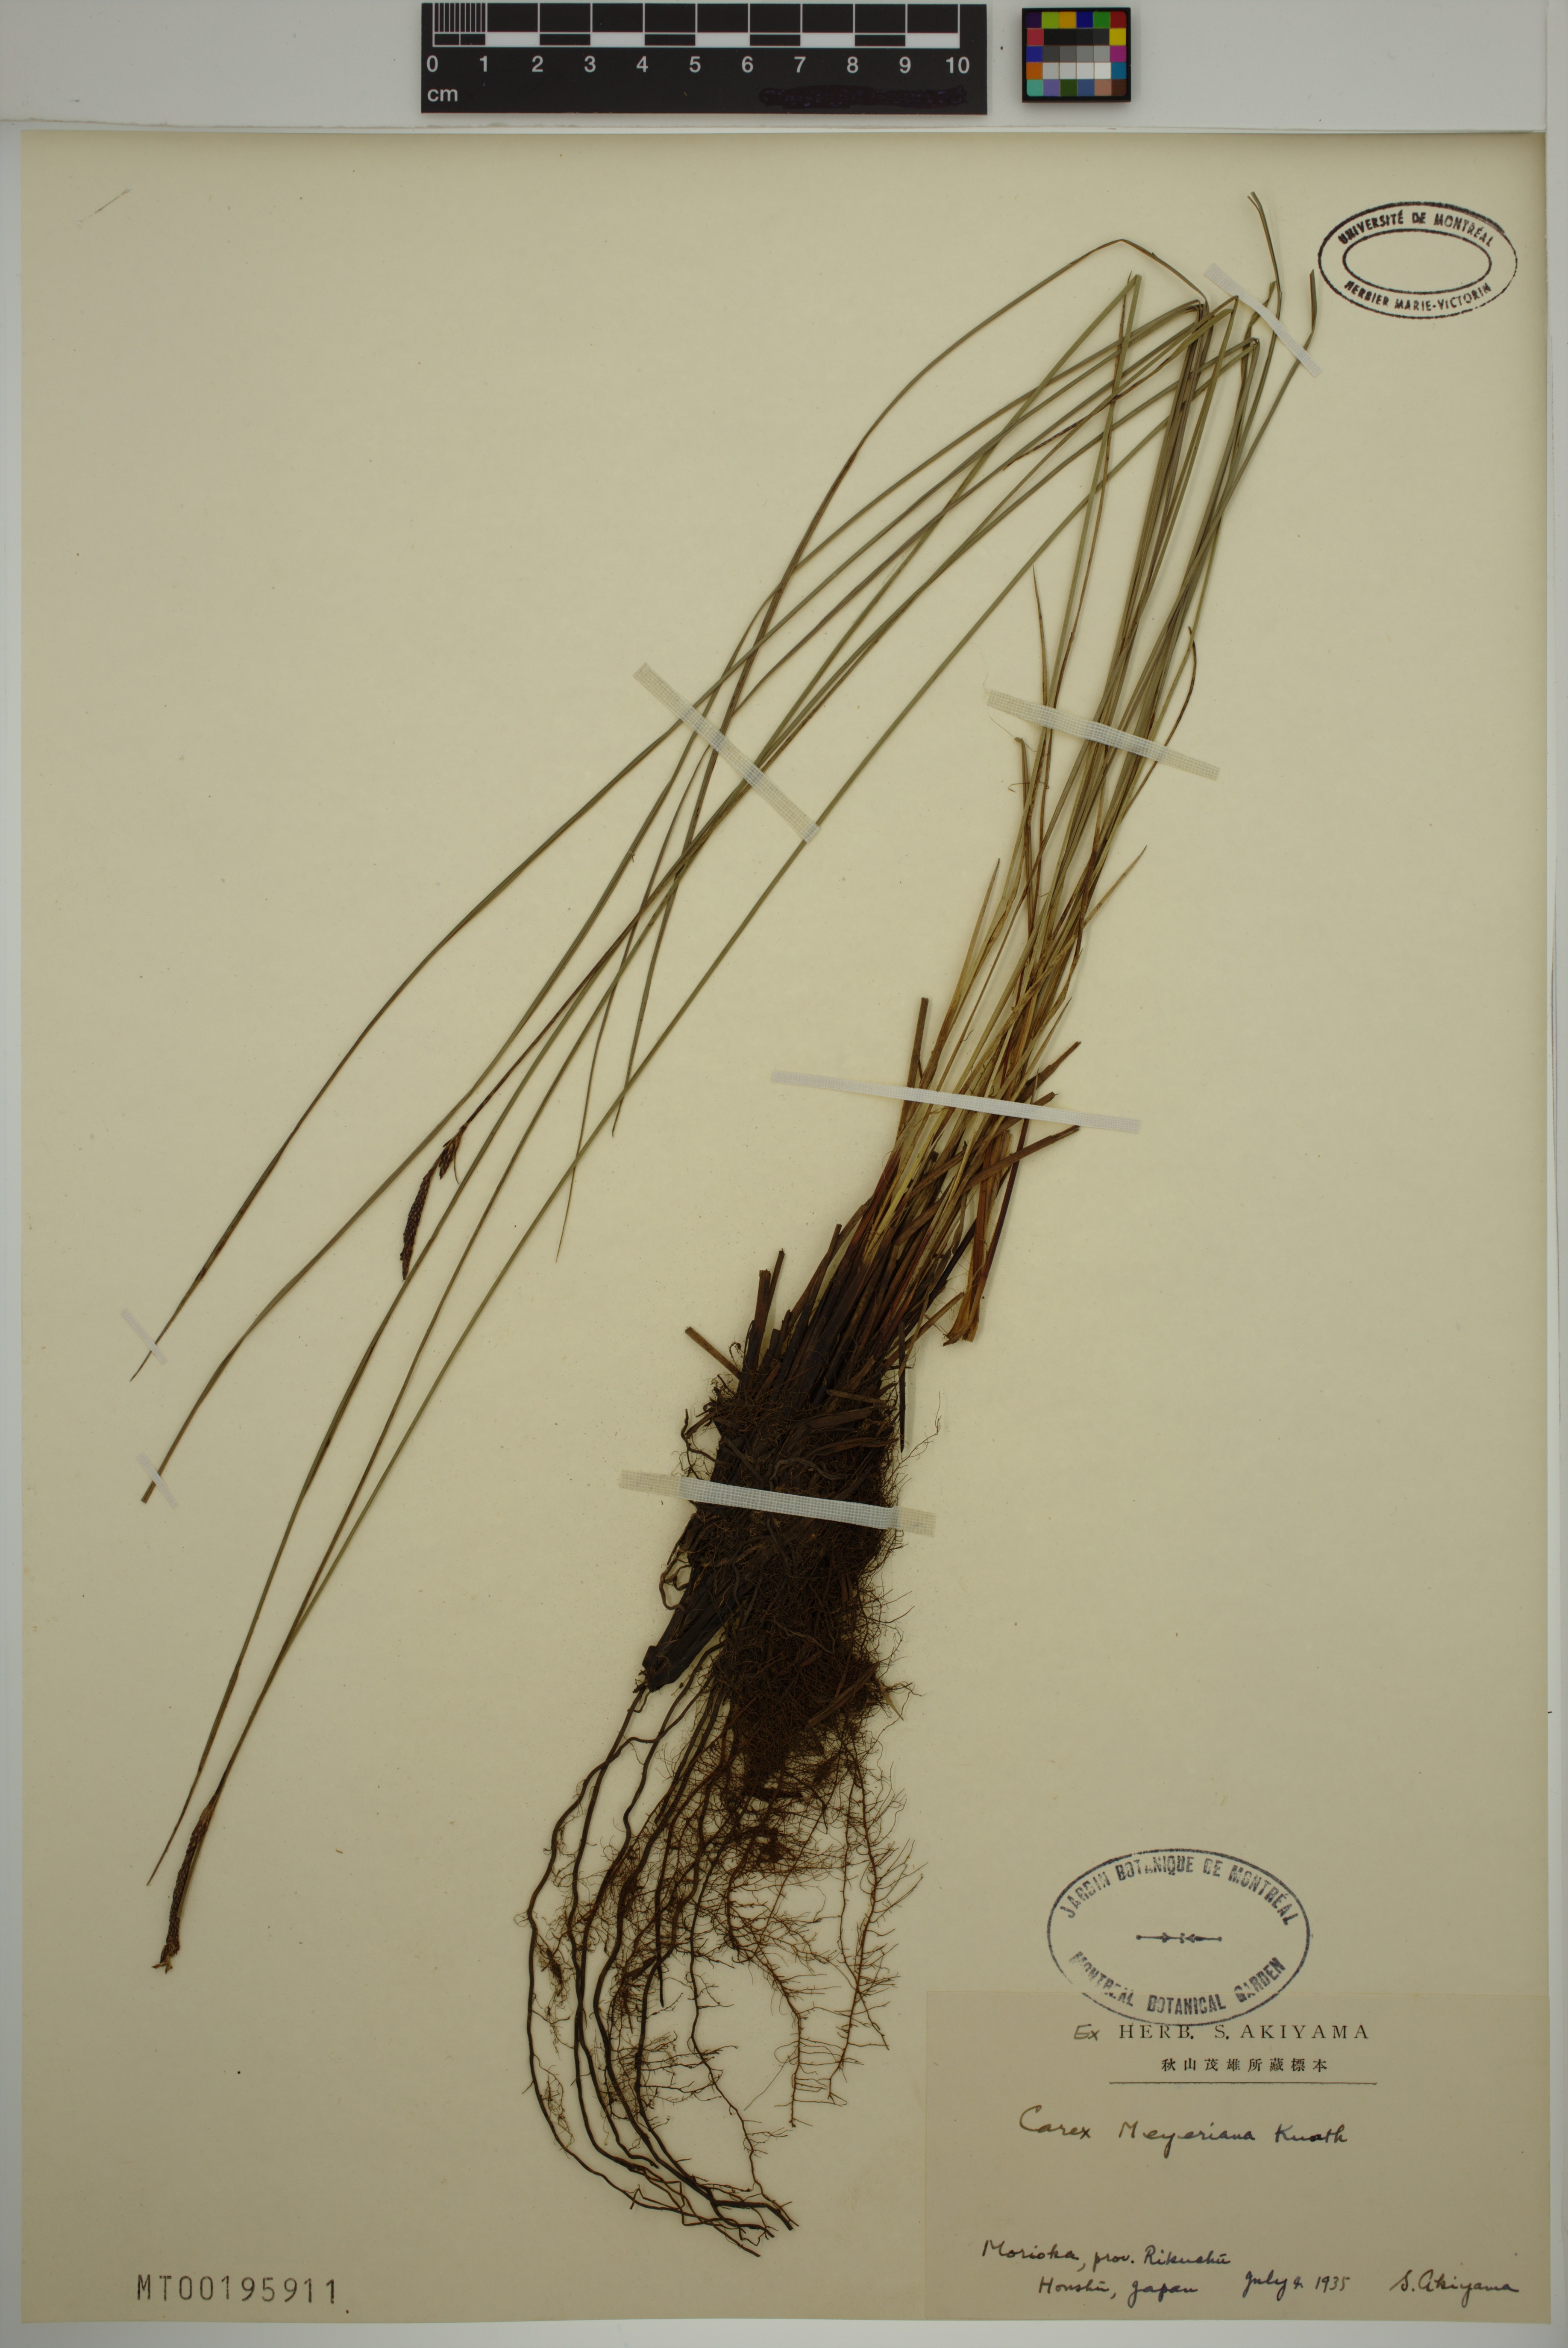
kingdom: Plantae
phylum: Tracheophyta
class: Liliopsida
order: Poales
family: Cyperaceae
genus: Carex
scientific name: Carex meyeriana
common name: Wula sedge
